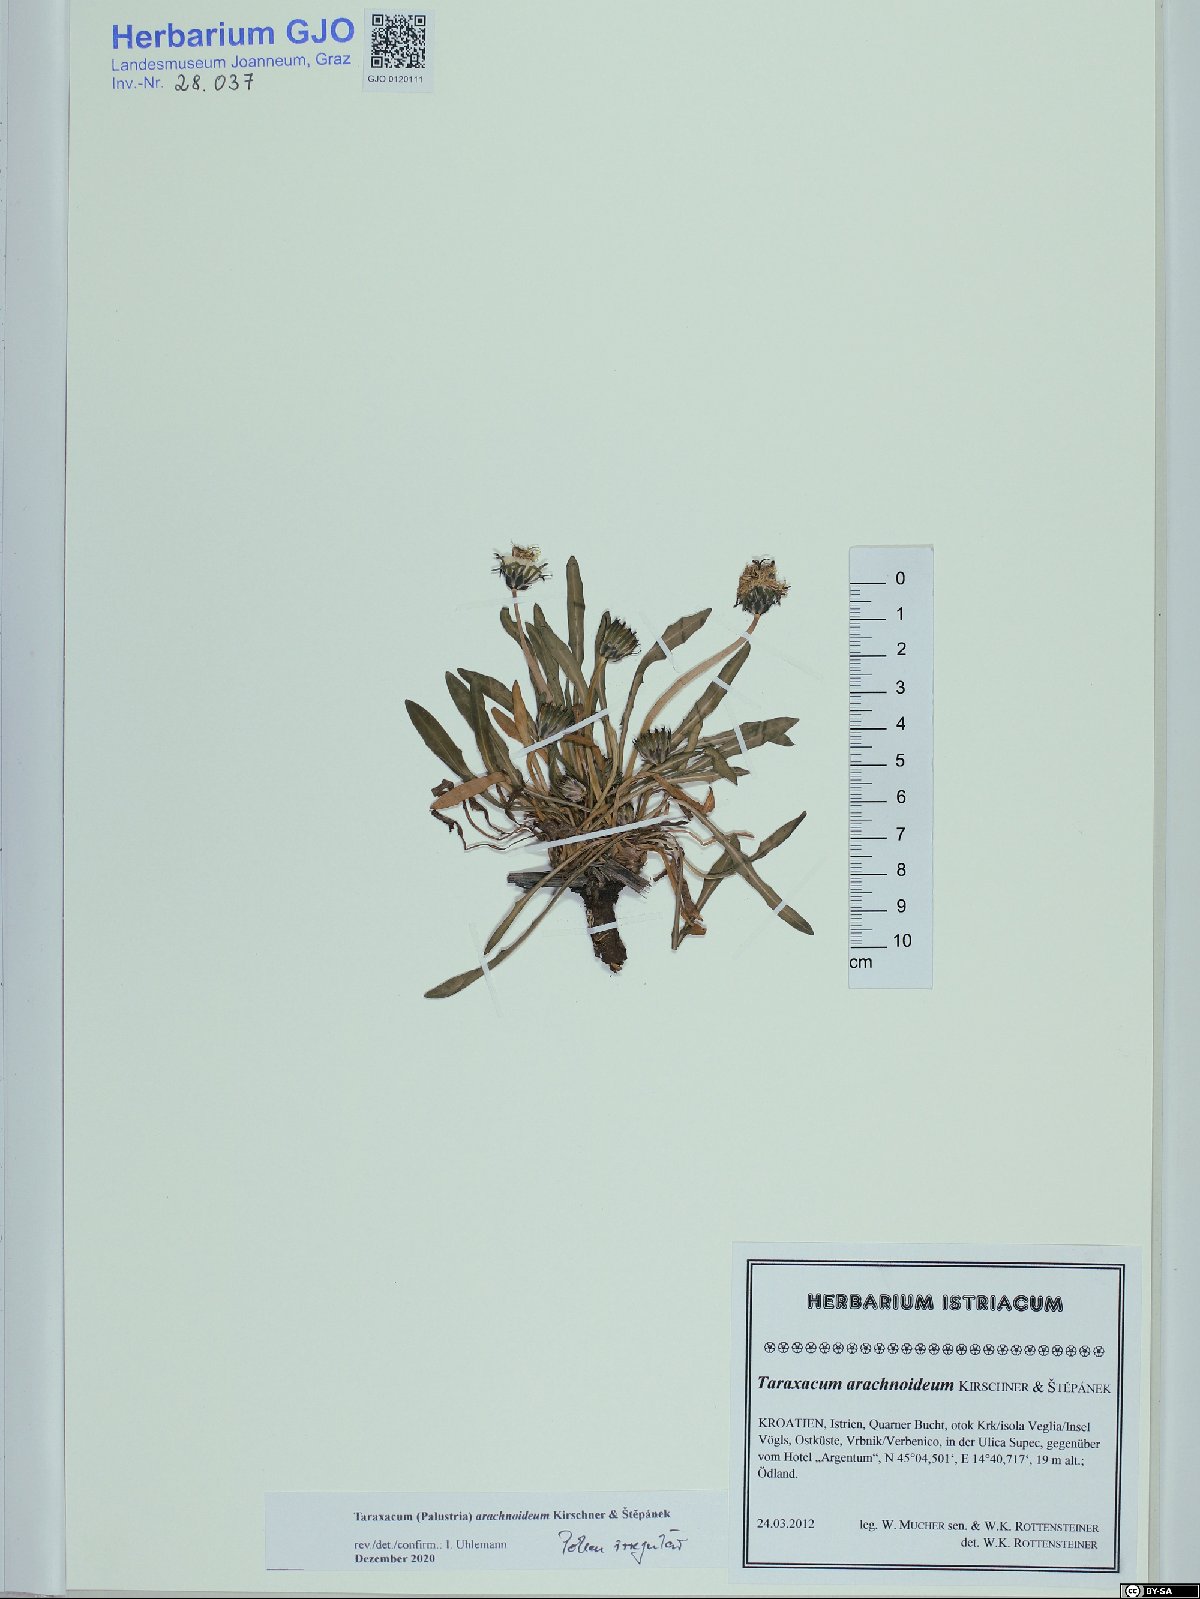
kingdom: Plantae
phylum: Tracheophyta
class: Magnoliopsida
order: Asterales
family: Asteraceae
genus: Taraxacum
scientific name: Taraxacum arachnoideum
